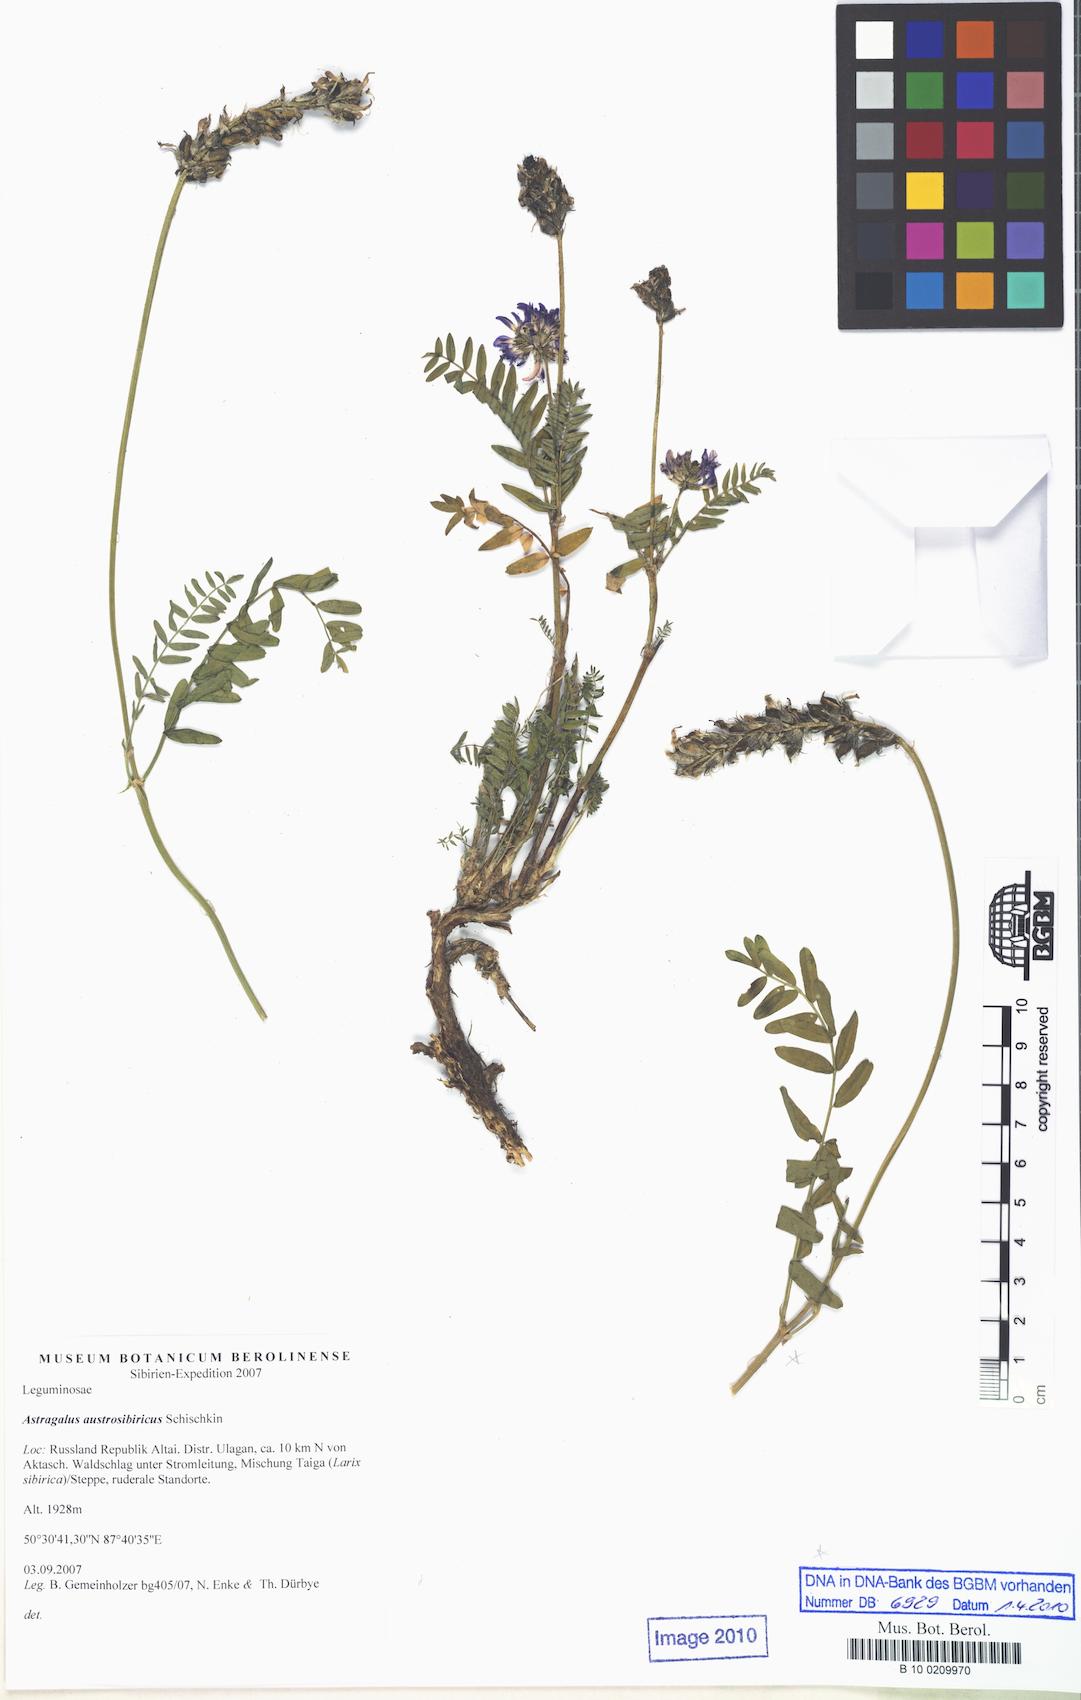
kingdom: Plantae
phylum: Tracheophyta
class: Magnoliopsida
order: Fabales
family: Fabaceae
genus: Astragalus
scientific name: Astragalus laxmannii
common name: Laxmann's milk-vetch
